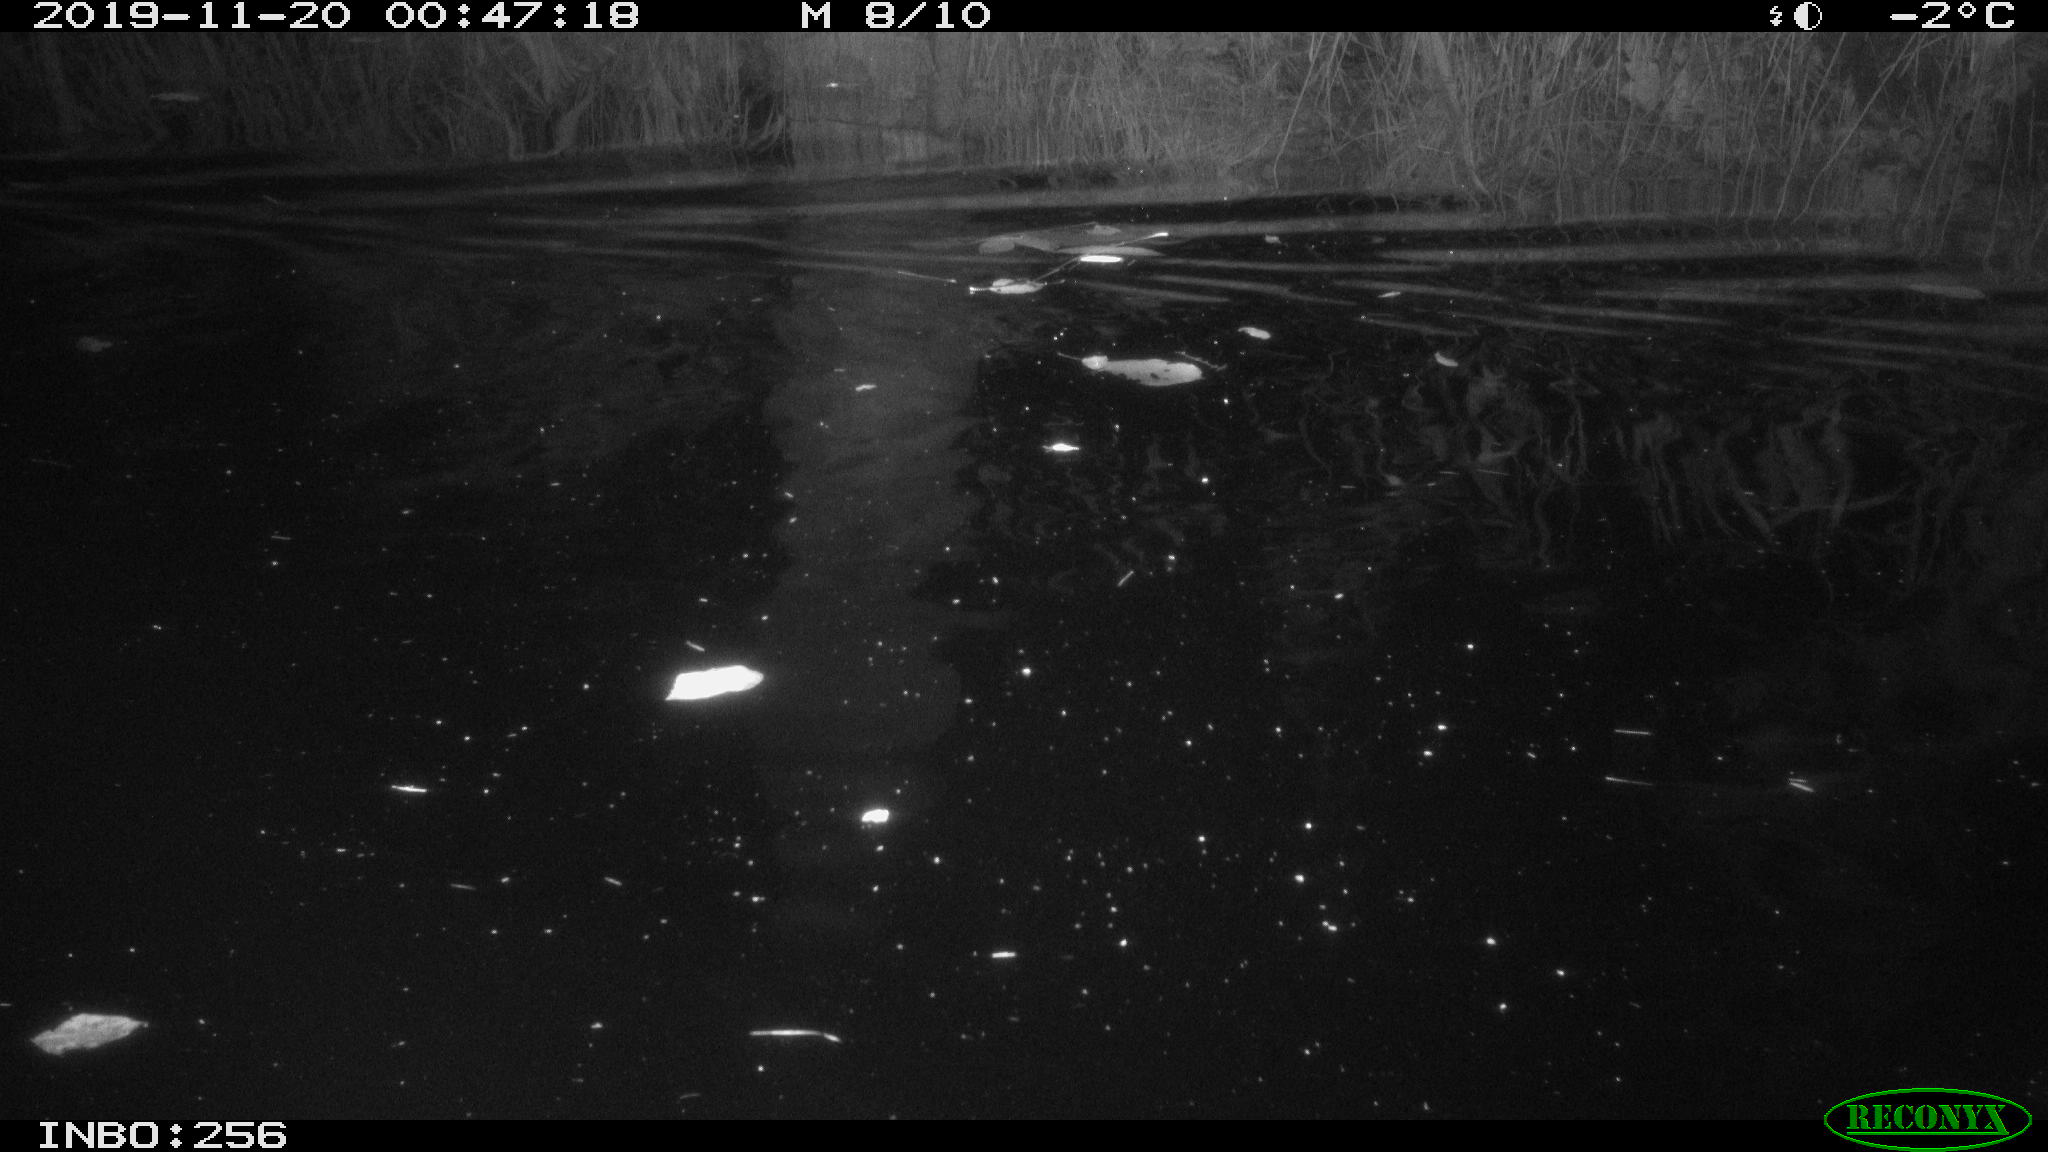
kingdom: Animalia
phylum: Chordata
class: Mammalia
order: Rodentia
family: Cricetidae
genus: Ondatra
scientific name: Ondatra zibethicus
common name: Muskrat
